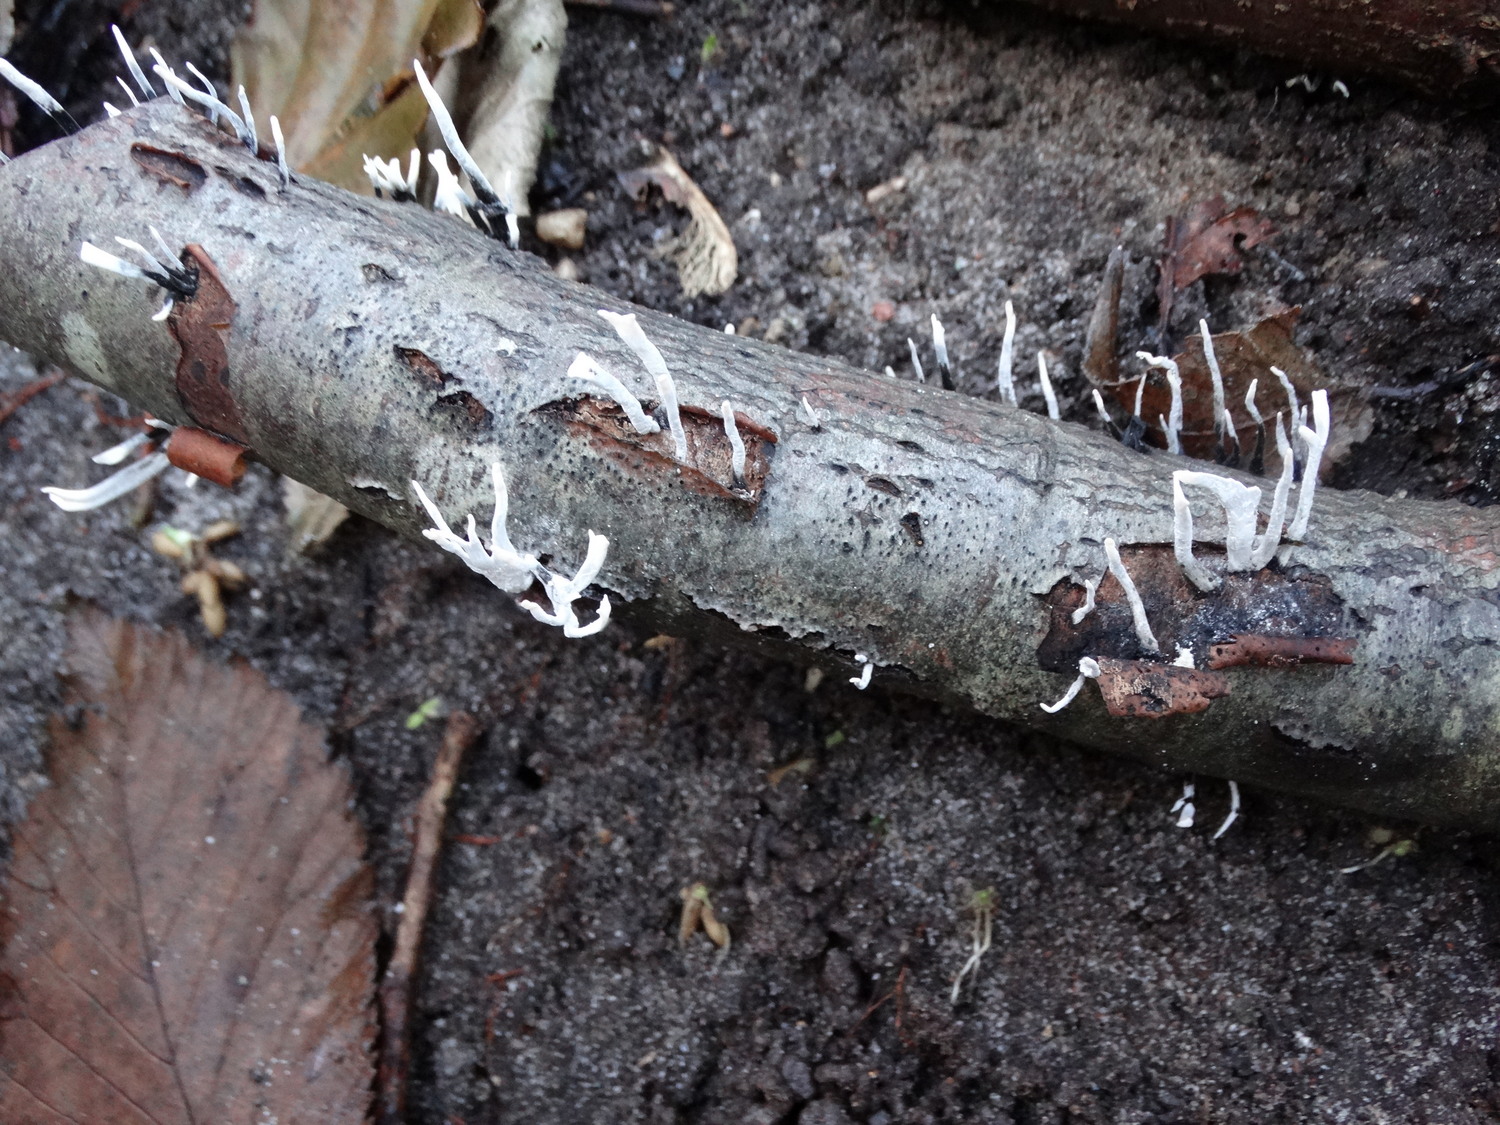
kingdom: Fungi
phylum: Ascomycota
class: Sordariomycetes
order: Xylariales
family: Xylariaceae
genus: Xylaria
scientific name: Xylaria hypoxylon
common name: grenet stødsvamp
